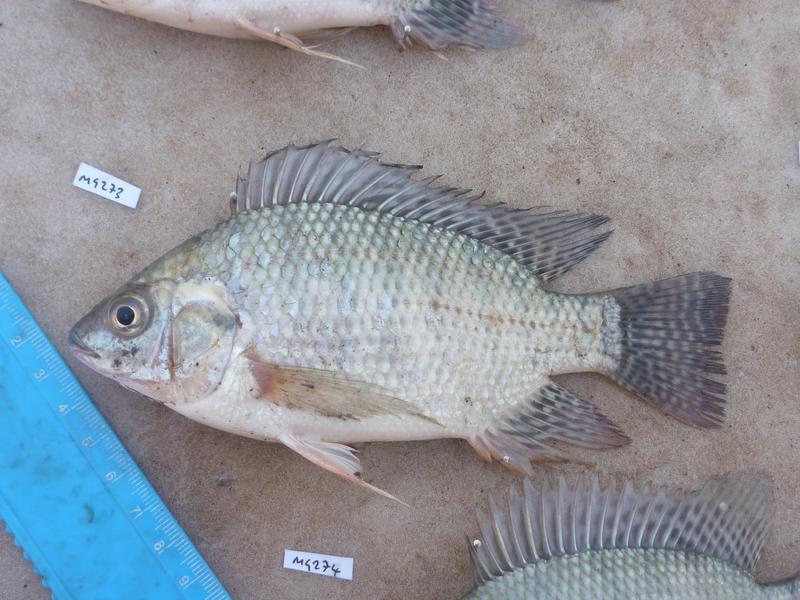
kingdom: Animalia
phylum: Chordata
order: Perciformes
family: Cichlidae
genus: Oreochromis
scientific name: Oreochromis niloticus
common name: Nile tilapia
